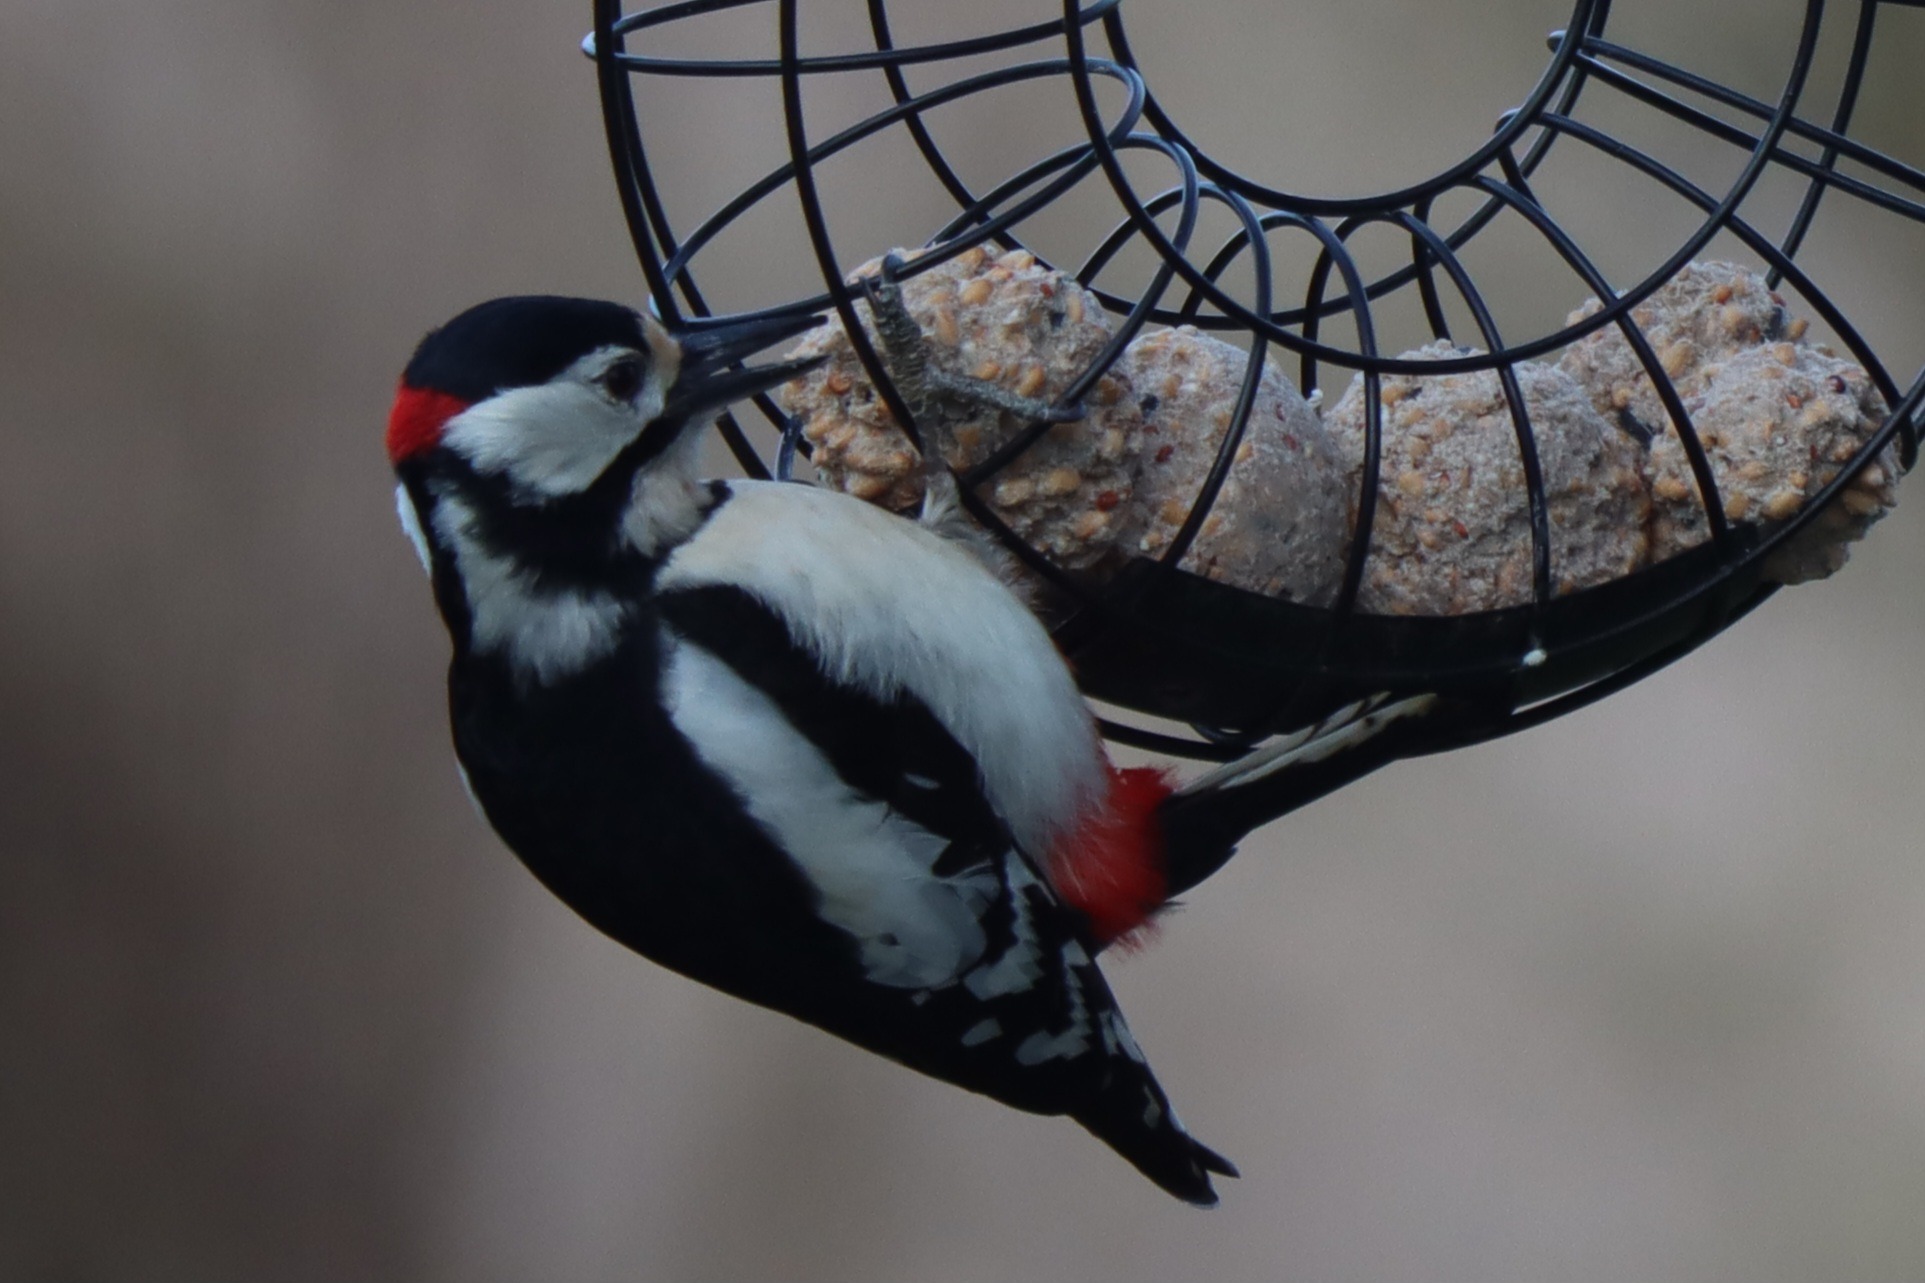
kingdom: Animalia
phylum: Chordata
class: Aves
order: Piciformes
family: Picidae
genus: Dendrocopos
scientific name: Dendrocopos major
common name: Stor flagspætte
